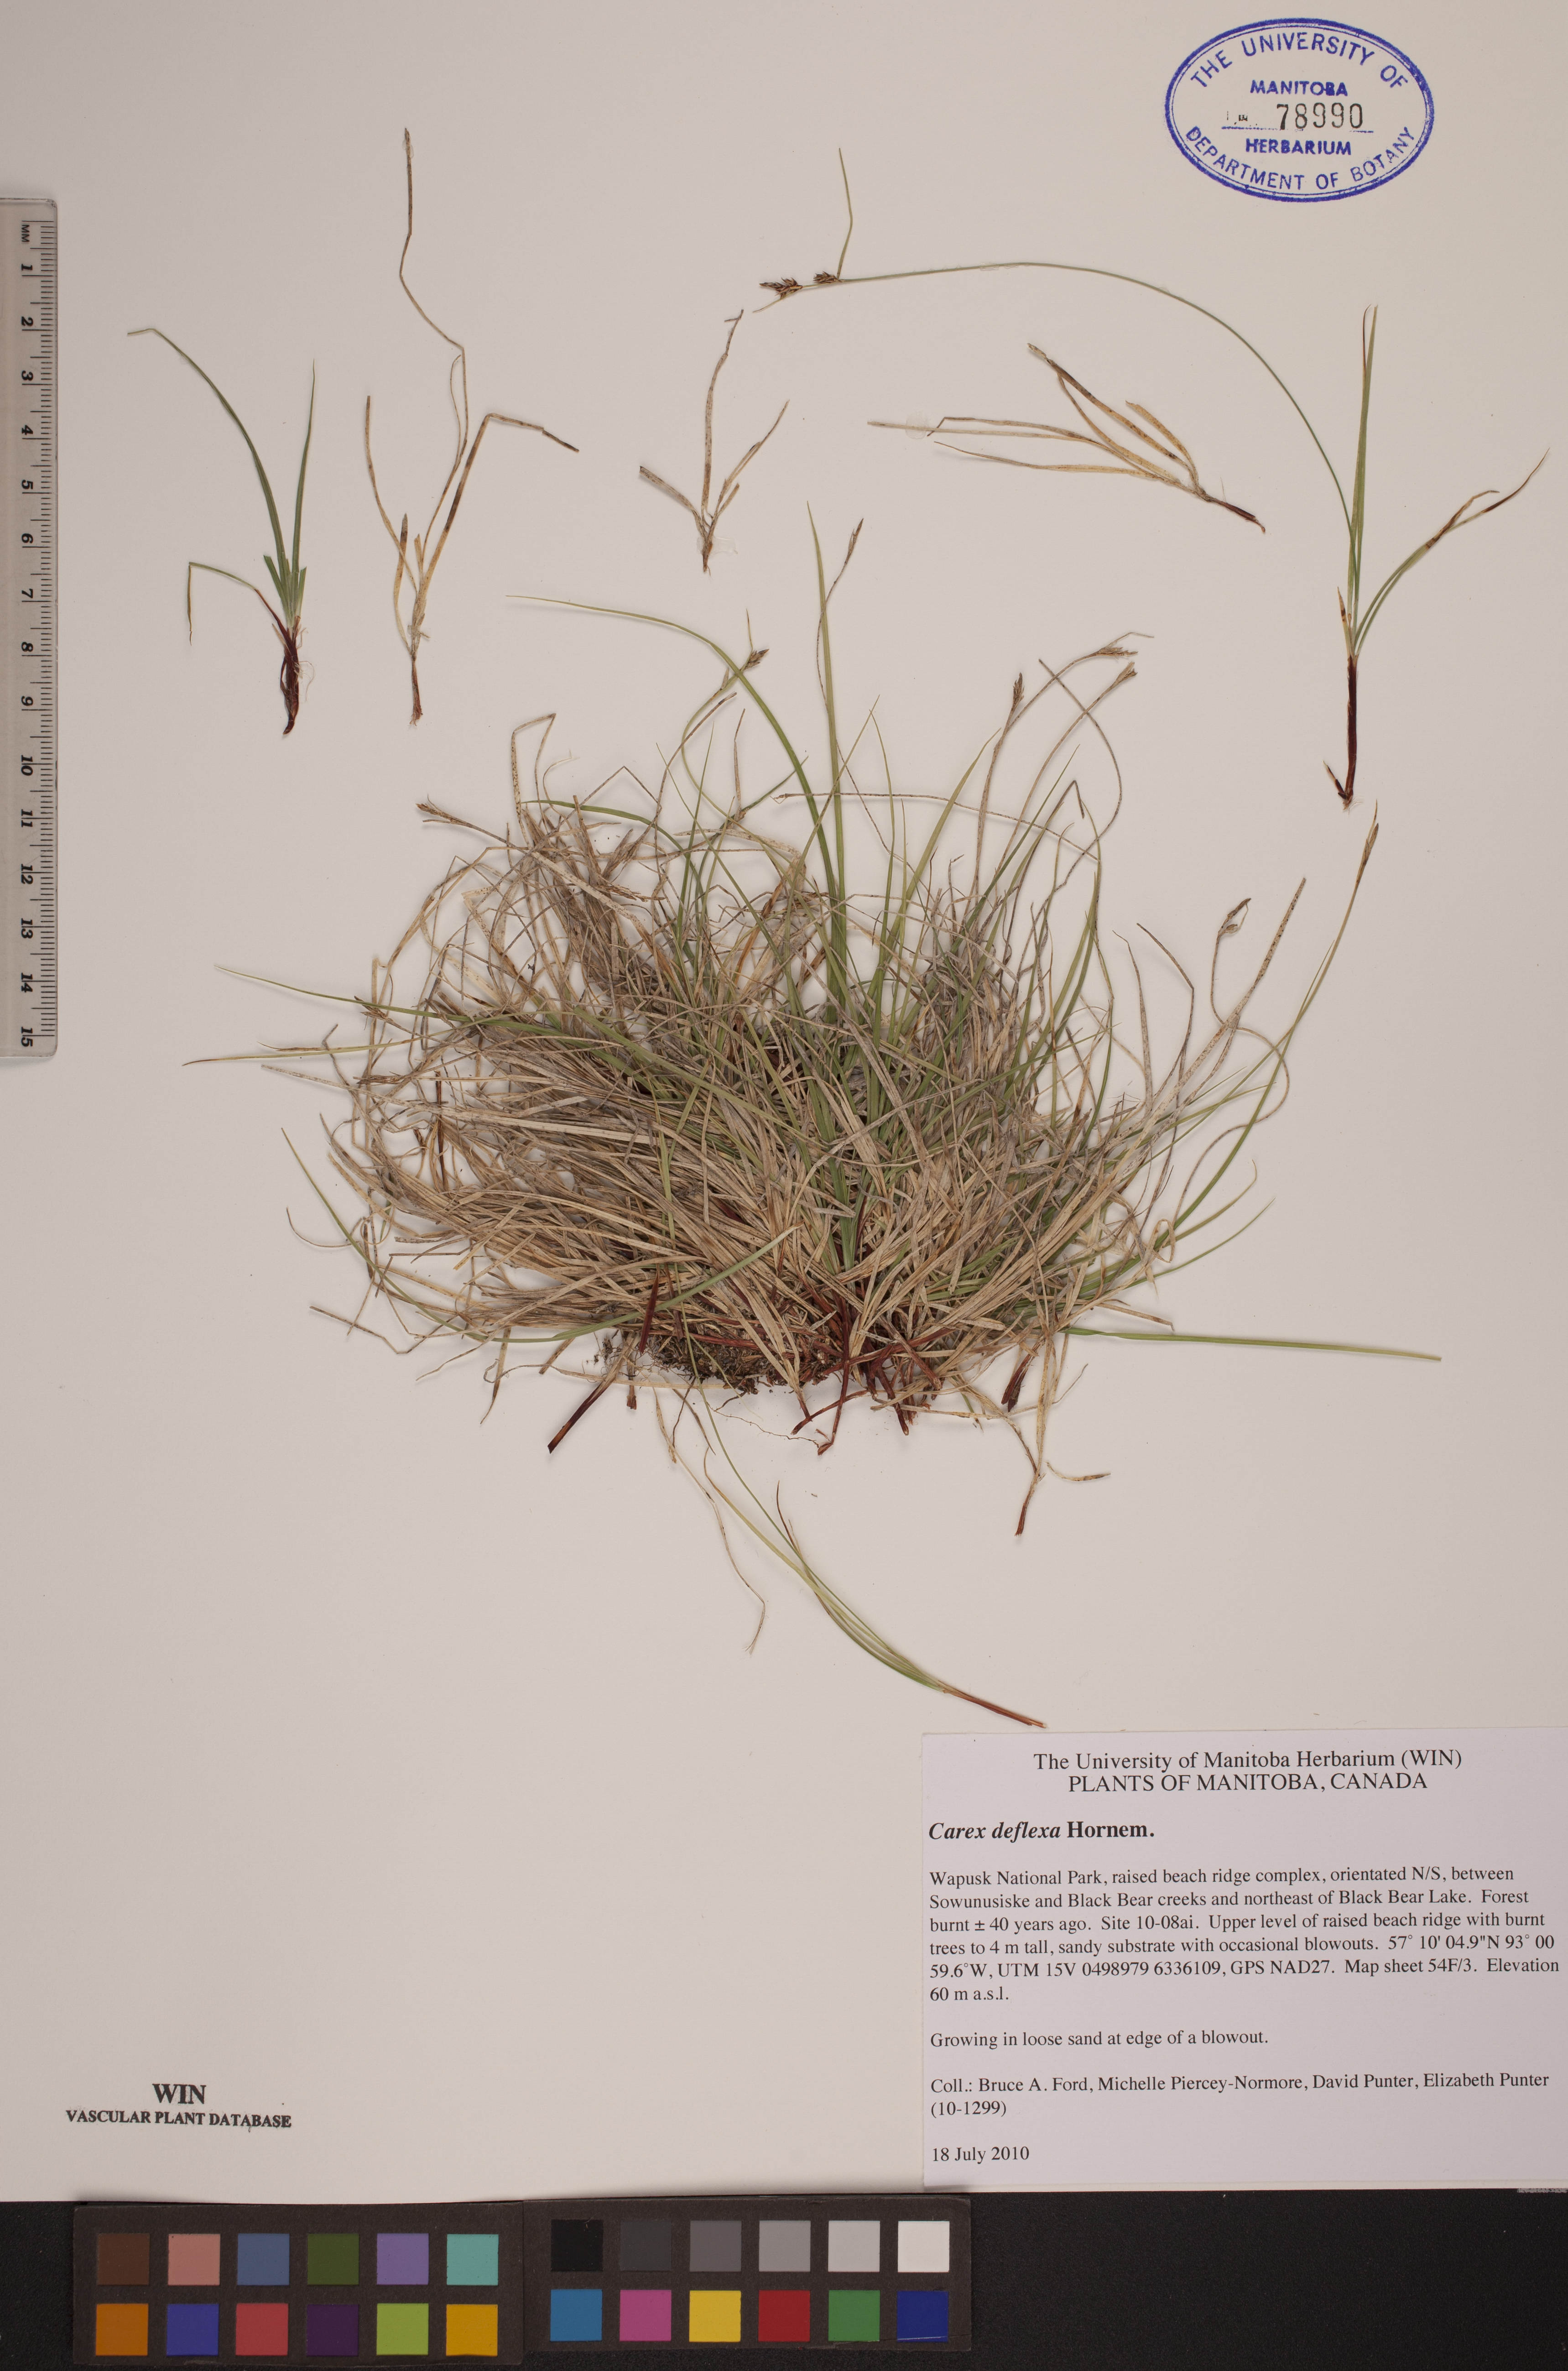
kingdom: Plantae
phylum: Tracheophyta
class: Liliopsida
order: Poales
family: Cyperaceae
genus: Carex
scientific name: Carex deflexa
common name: Bent northern sedge
